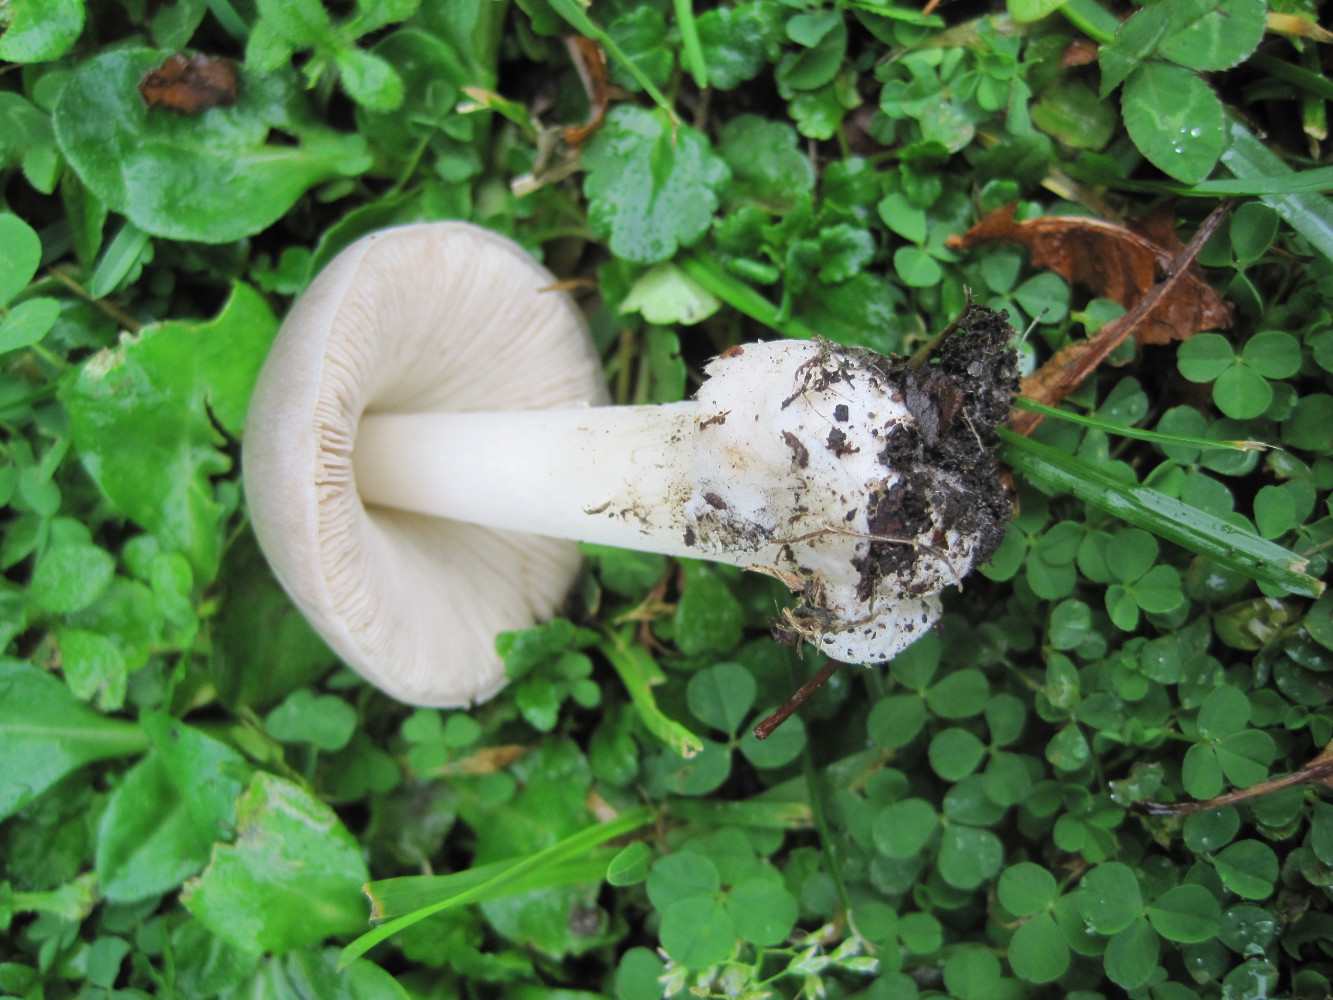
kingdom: Fungi
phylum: Basidiomycota
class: Agaricomycetes
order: Agaricales
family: Pluteaceae
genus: Volvopluteus
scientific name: Volvopluteus gloiocephalus
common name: høj posesvamp
